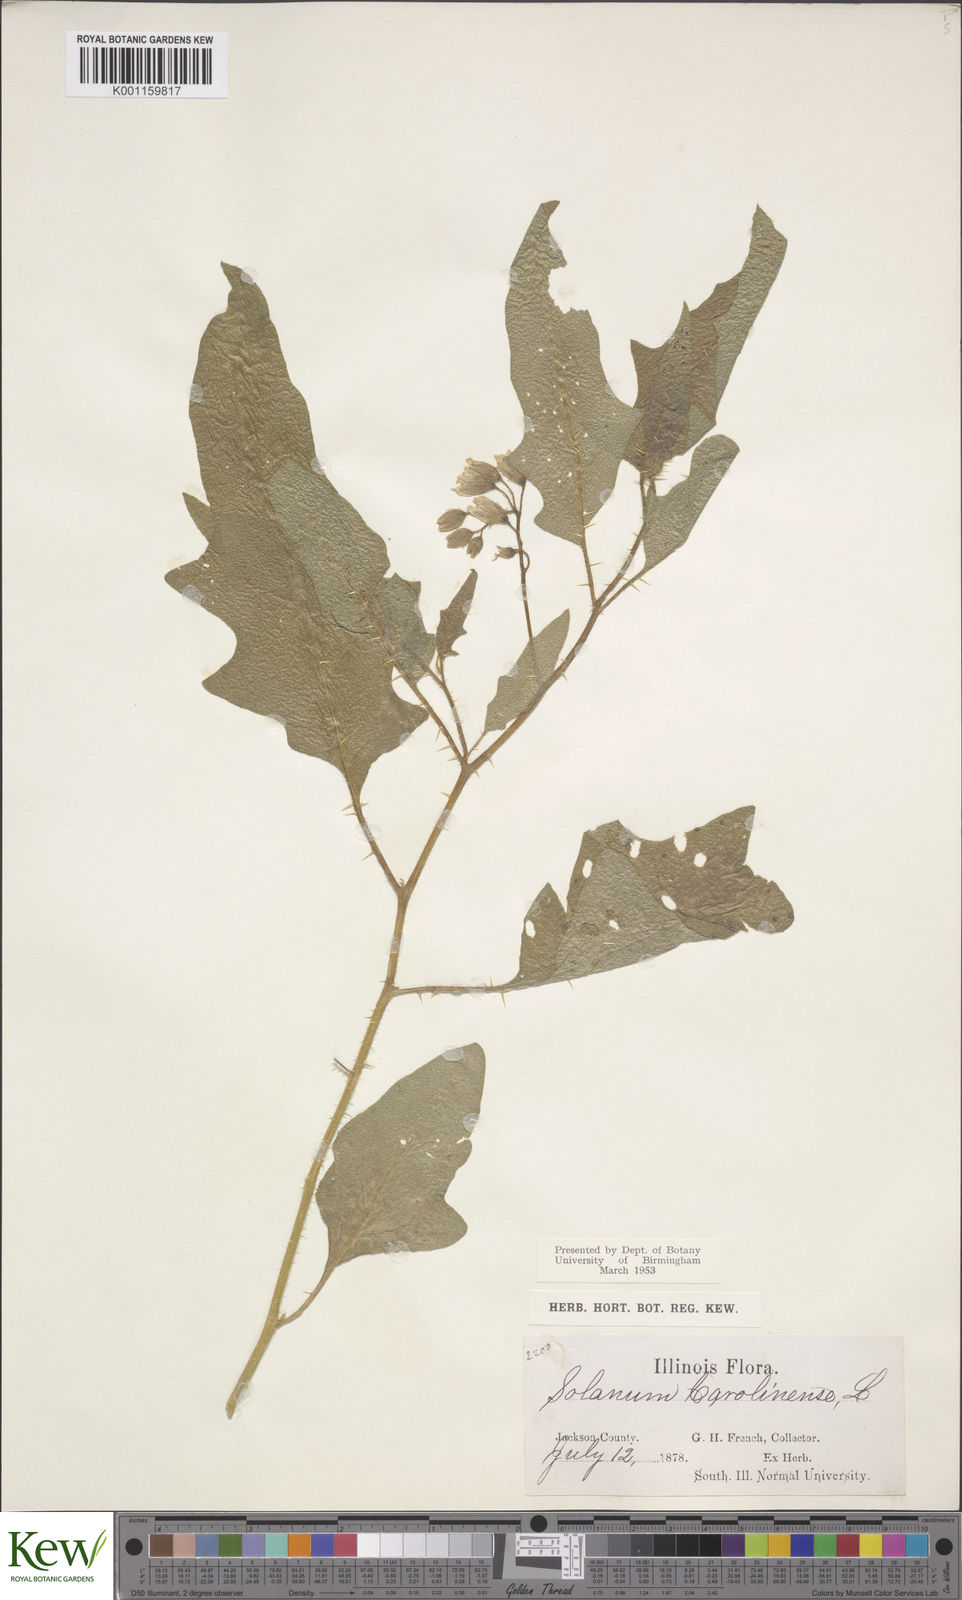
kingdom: Plantae
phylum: Tracheophyta
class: Magnoliopsida
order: Solanales
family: Solanaceae
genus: Solanum
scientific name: Solanum carolinense
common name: Horse-nettle
